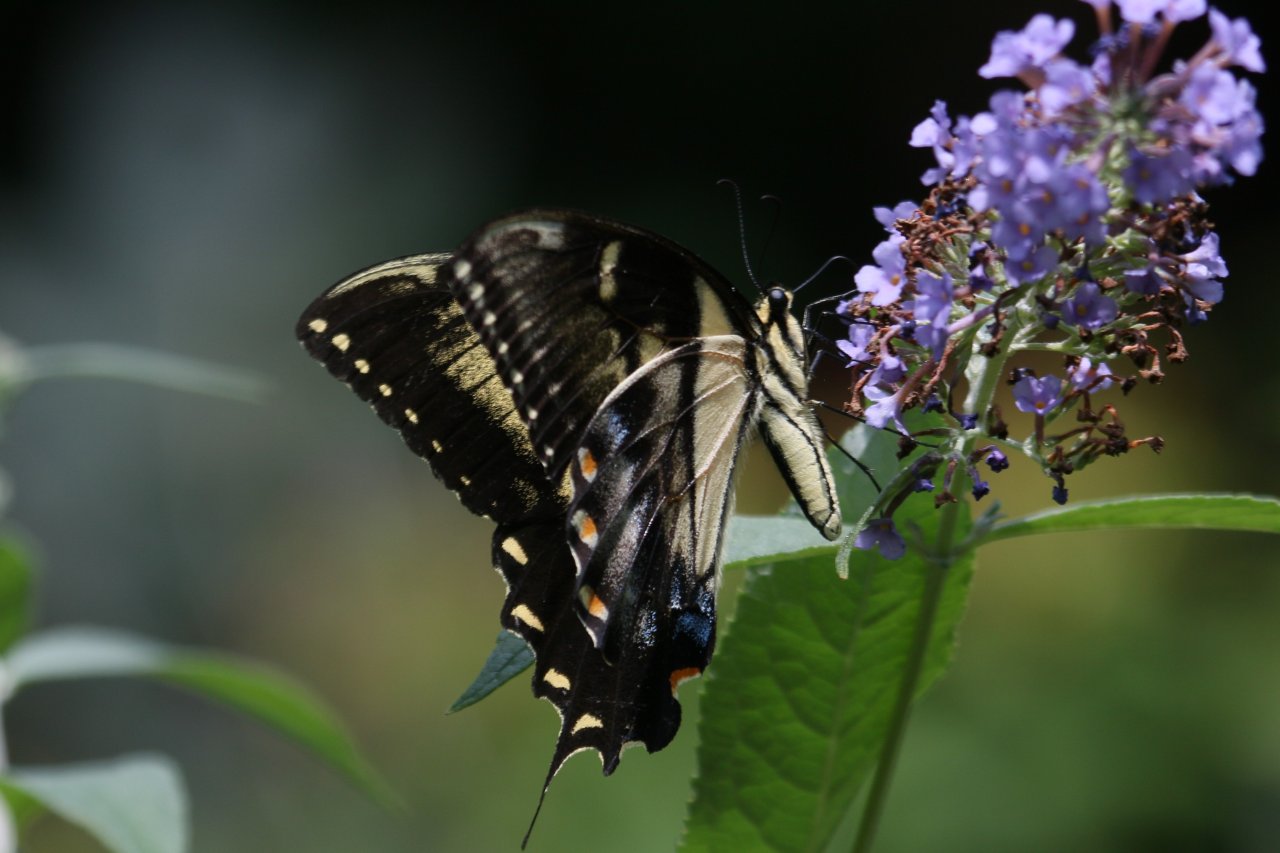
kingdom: Animalia
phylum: Arthropoda
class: Insecta
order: Lepidoptera
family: Papilionidae
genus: Pterourus
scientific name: Pterourus glaucus
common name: Eastern Tiger Swallowtail
